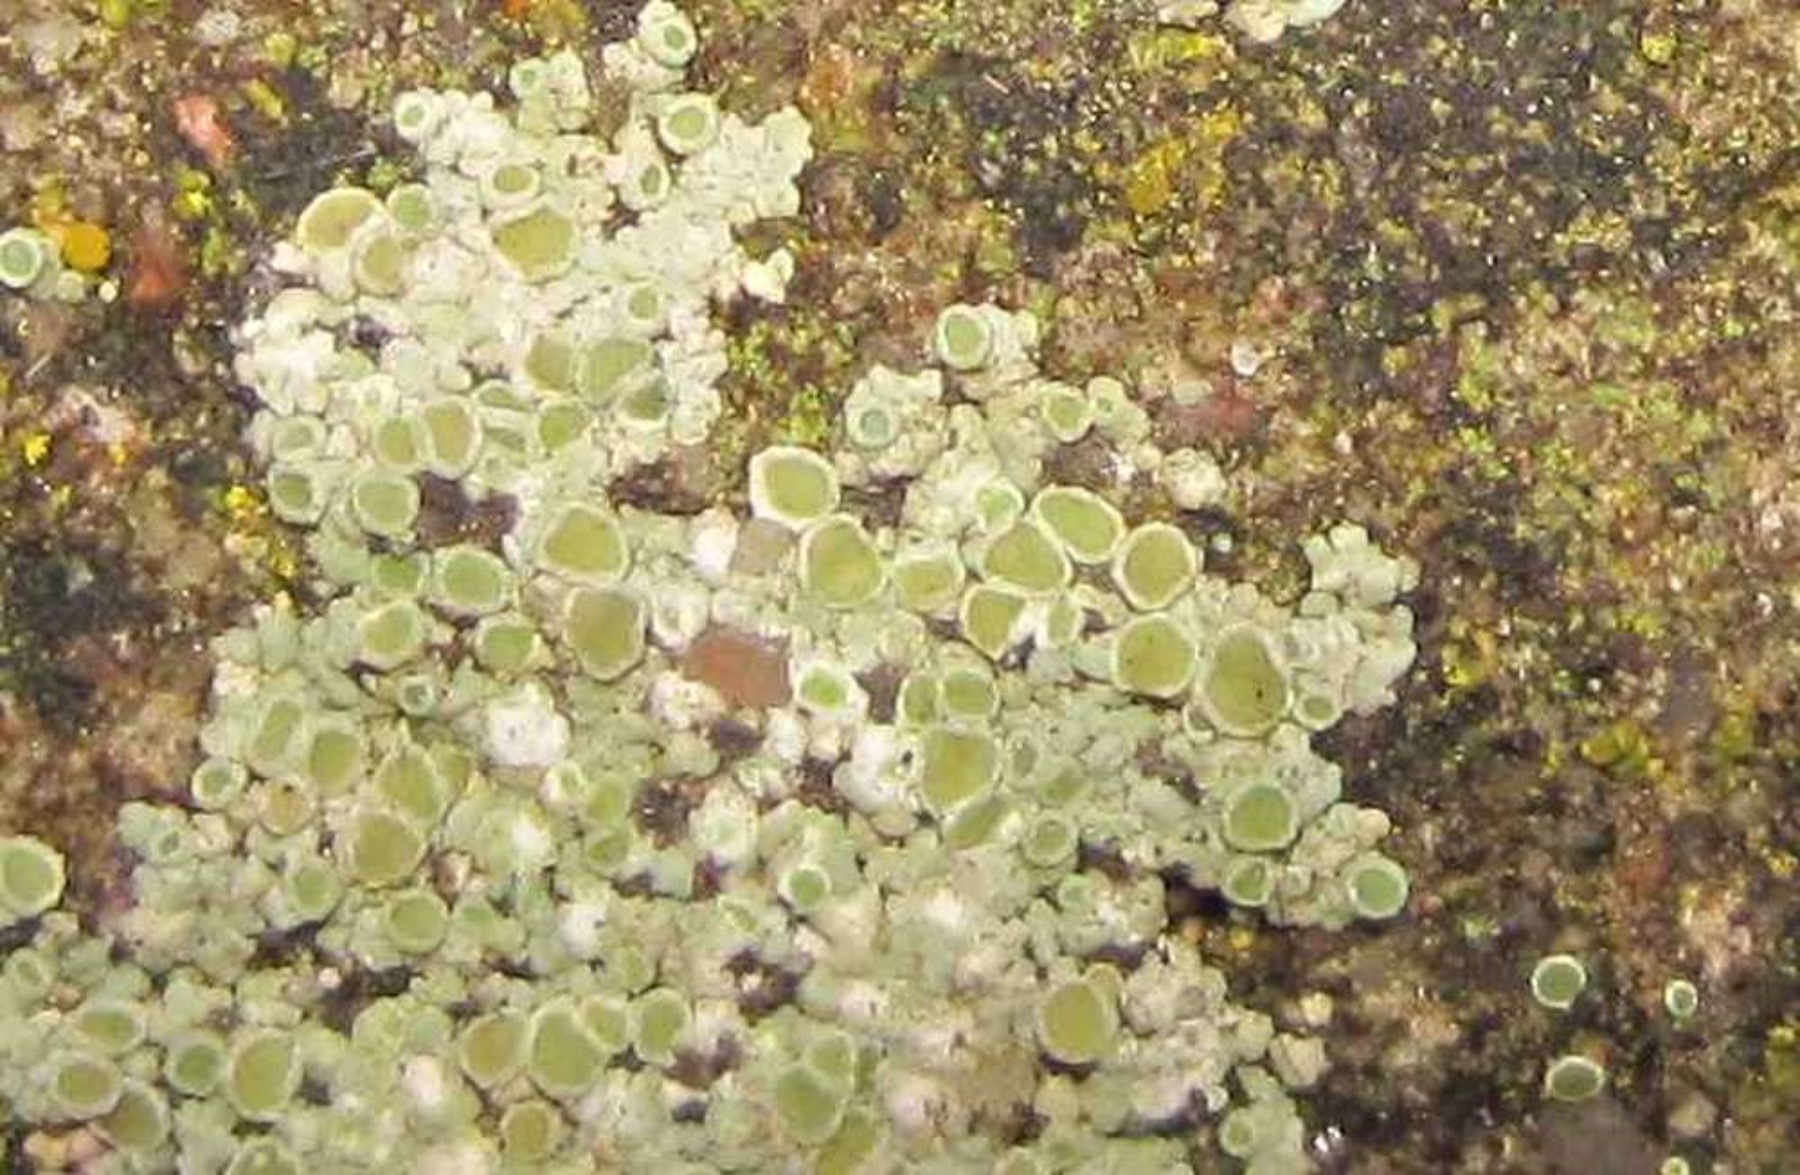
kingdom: Fungi
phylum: Ascomycota
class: Lecanoromycetes
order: Lecanorales
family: Lecanoraceae
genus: Polyozosia
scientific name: Polyozosia albescens
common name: cement-kantskivelav
